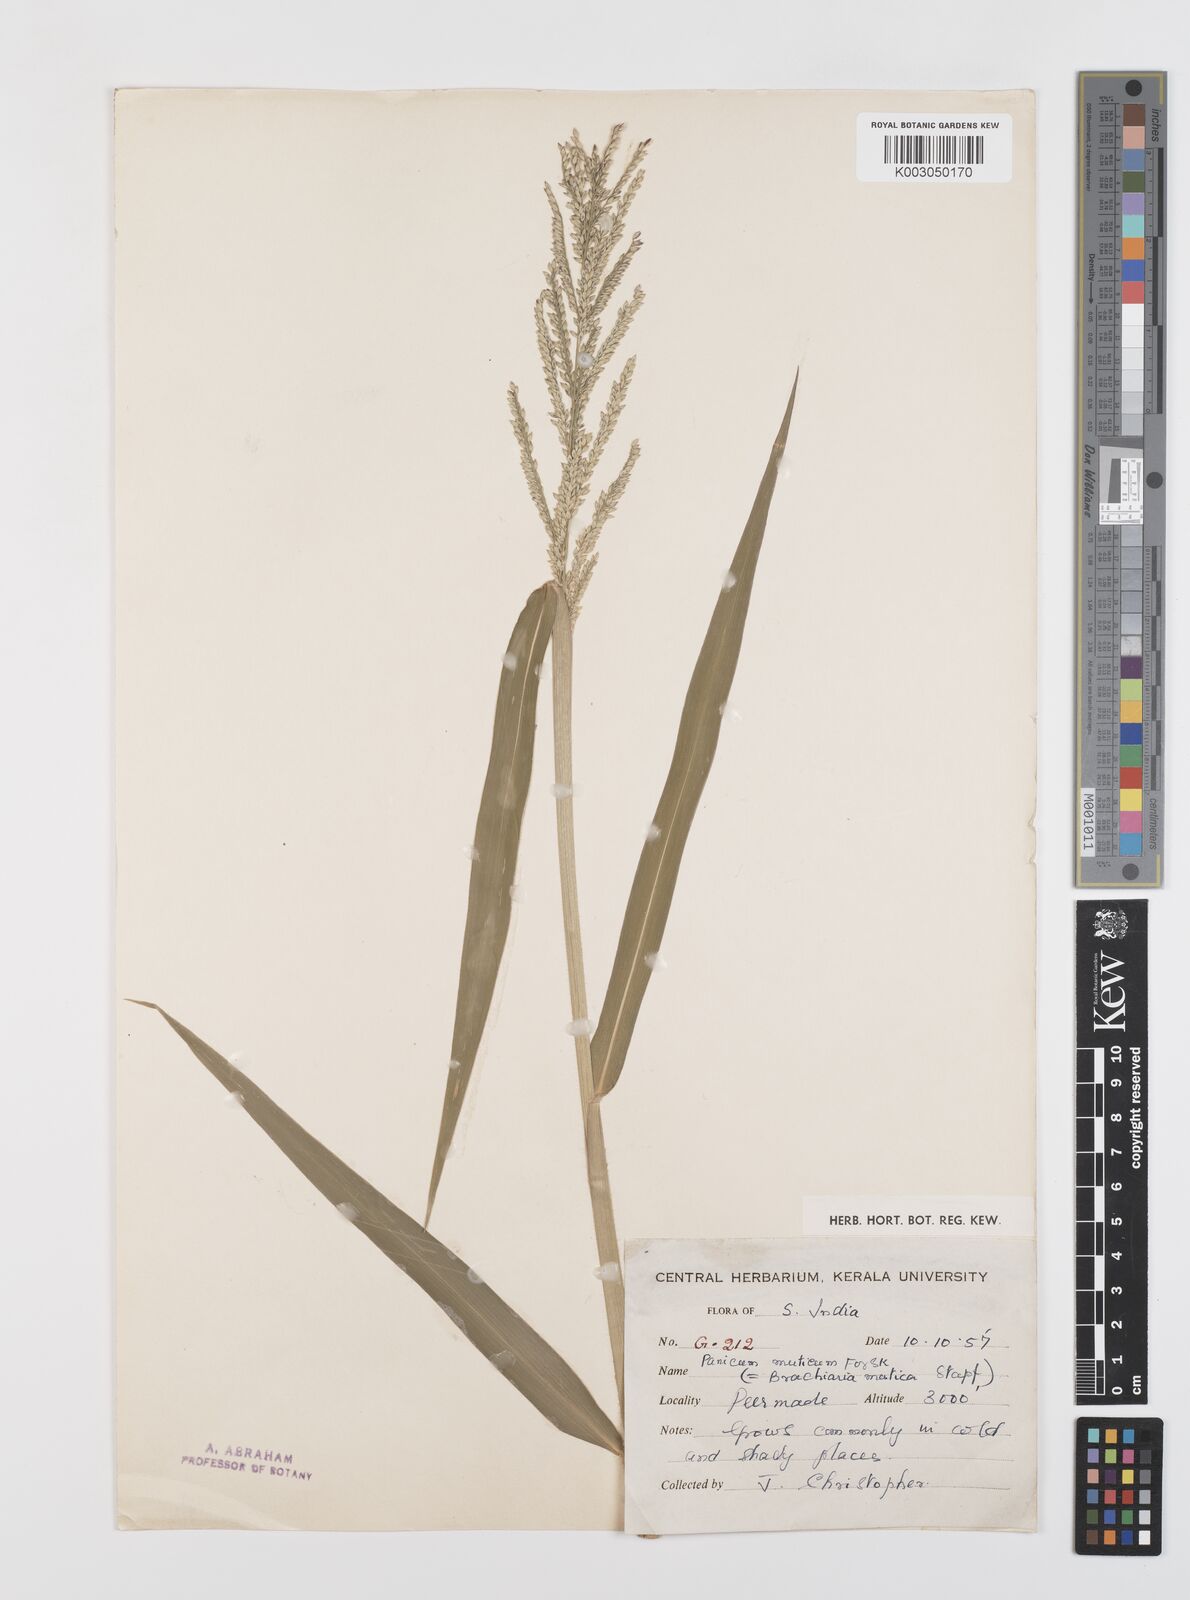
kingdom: Plantae
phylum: Tracheophyta
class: Liliopsida
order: Poales
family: Poaceae
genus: Urochloa
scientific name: Urochloa mutica
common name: Para grass
